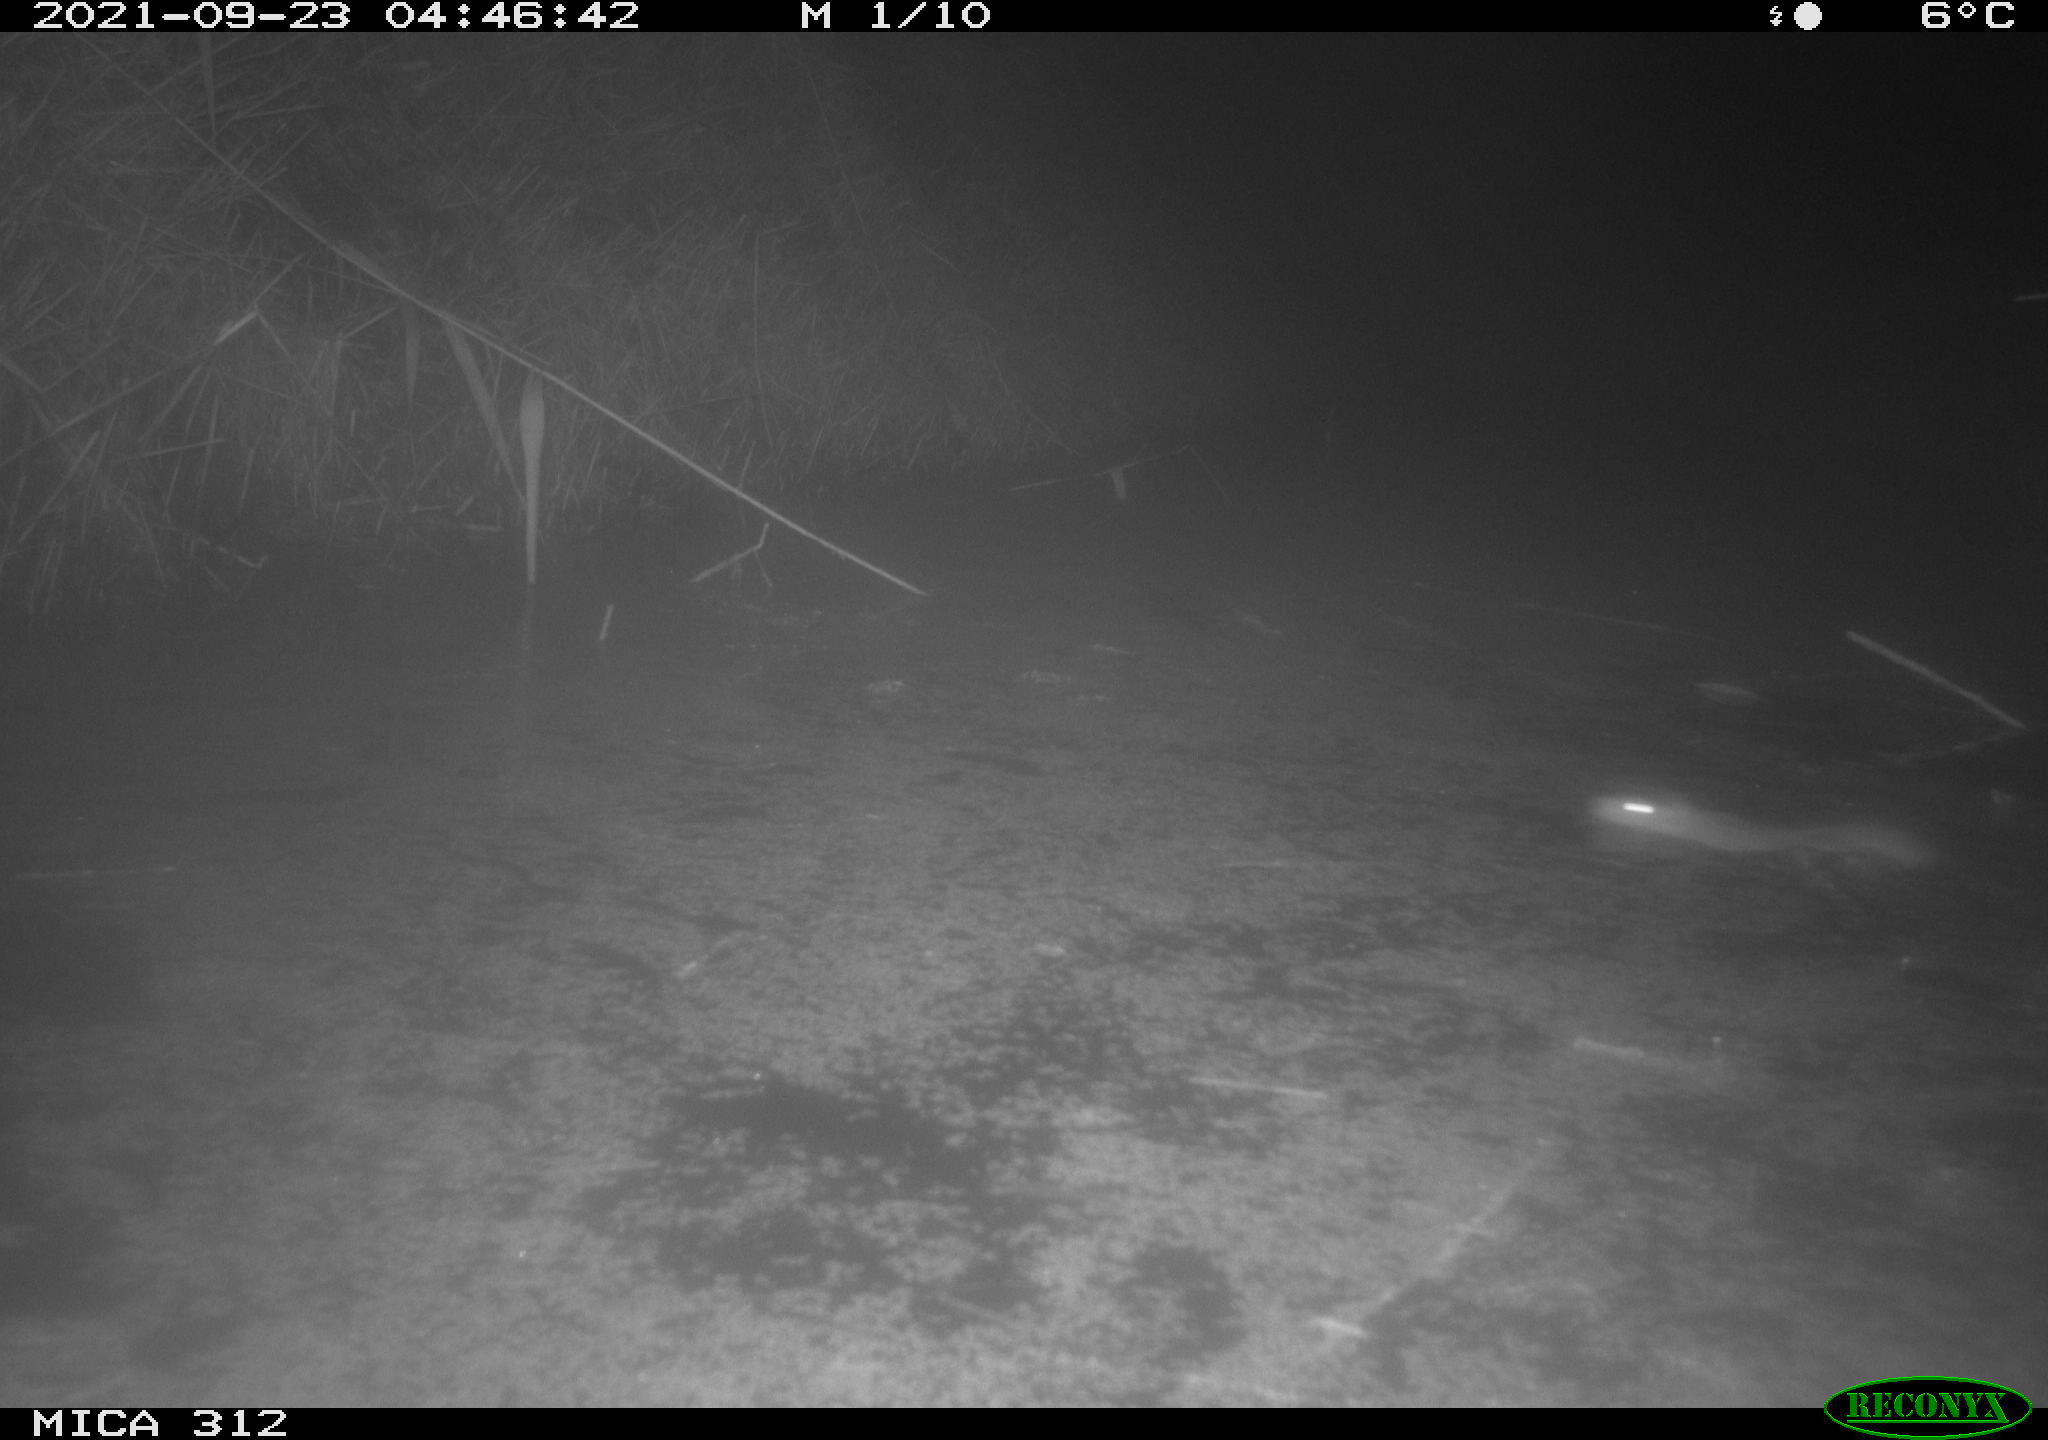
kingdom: Animalia
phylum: Chordata
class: Mammalia
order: Rodentia
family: Muridae
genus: Rattus
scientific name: Rattus norvegicus
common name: Brown rat
